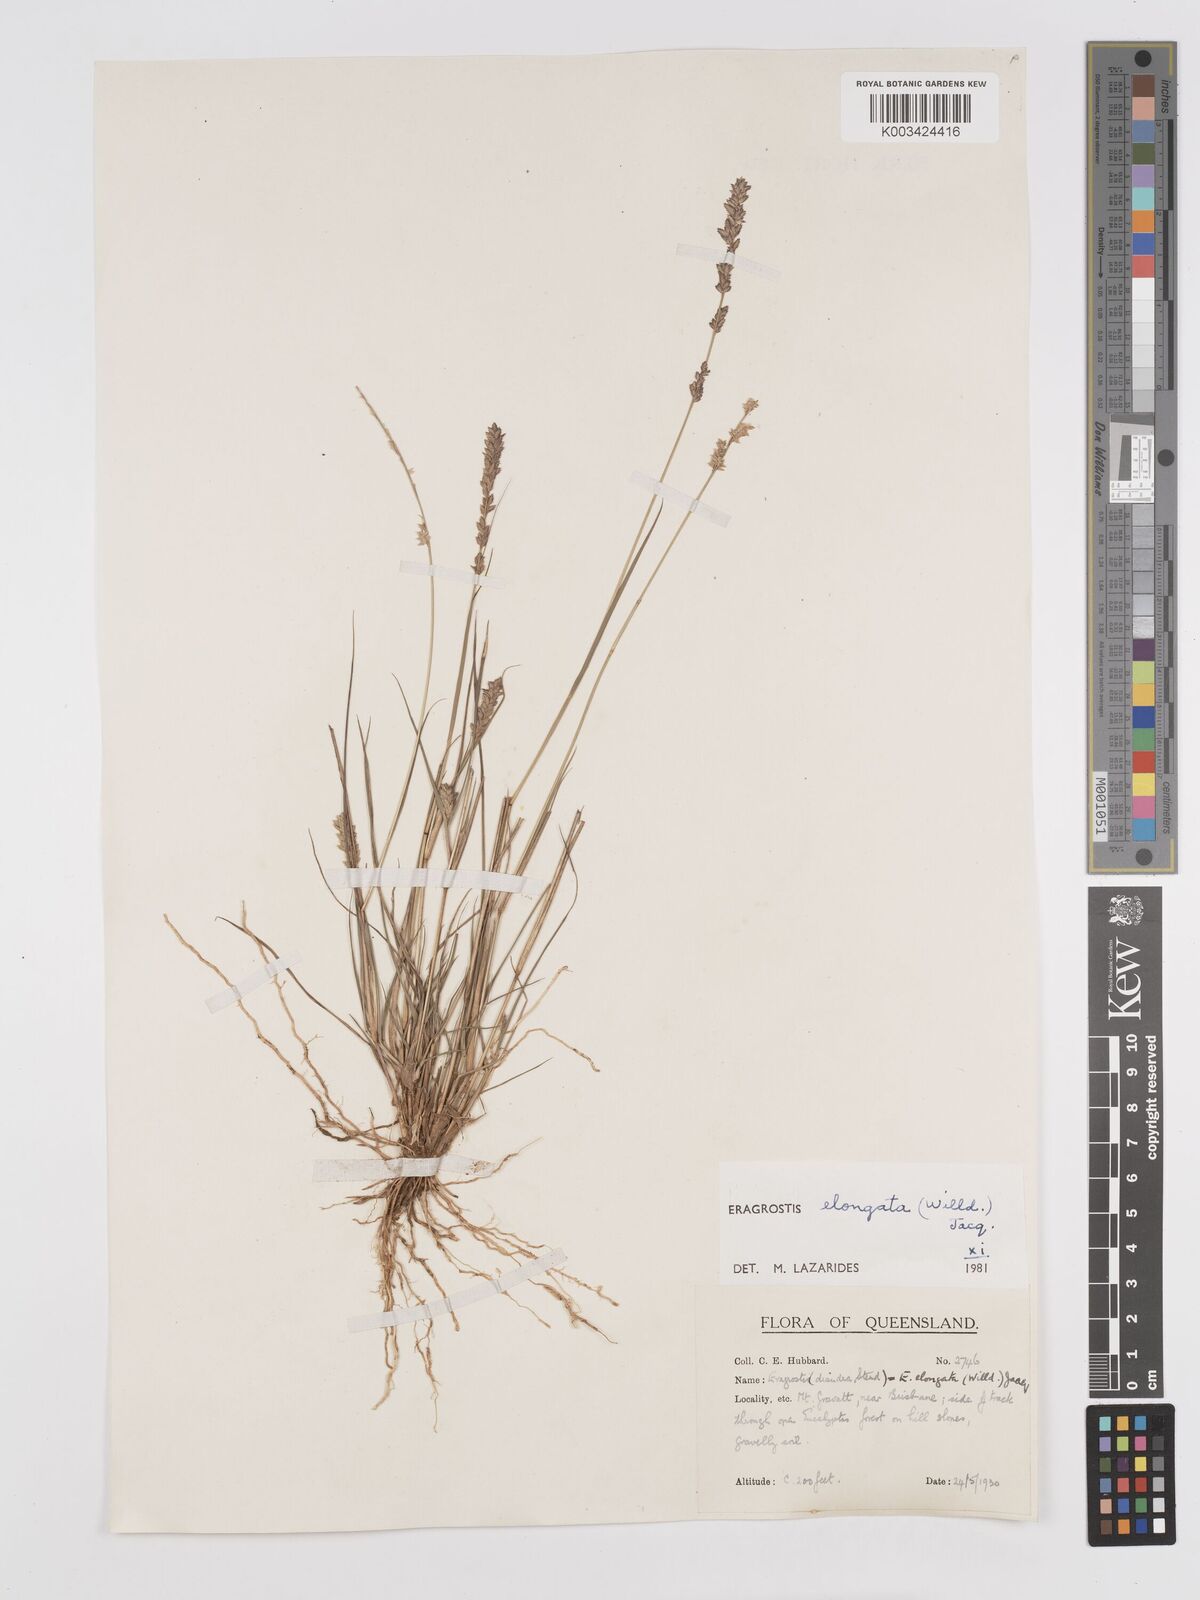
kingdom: Plantae
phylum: Tracheophyta
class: Liliopsida
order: Poales
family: Poaceae
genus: Eragrostis
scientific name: Eragrostis elongata
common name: Long lovegrass
